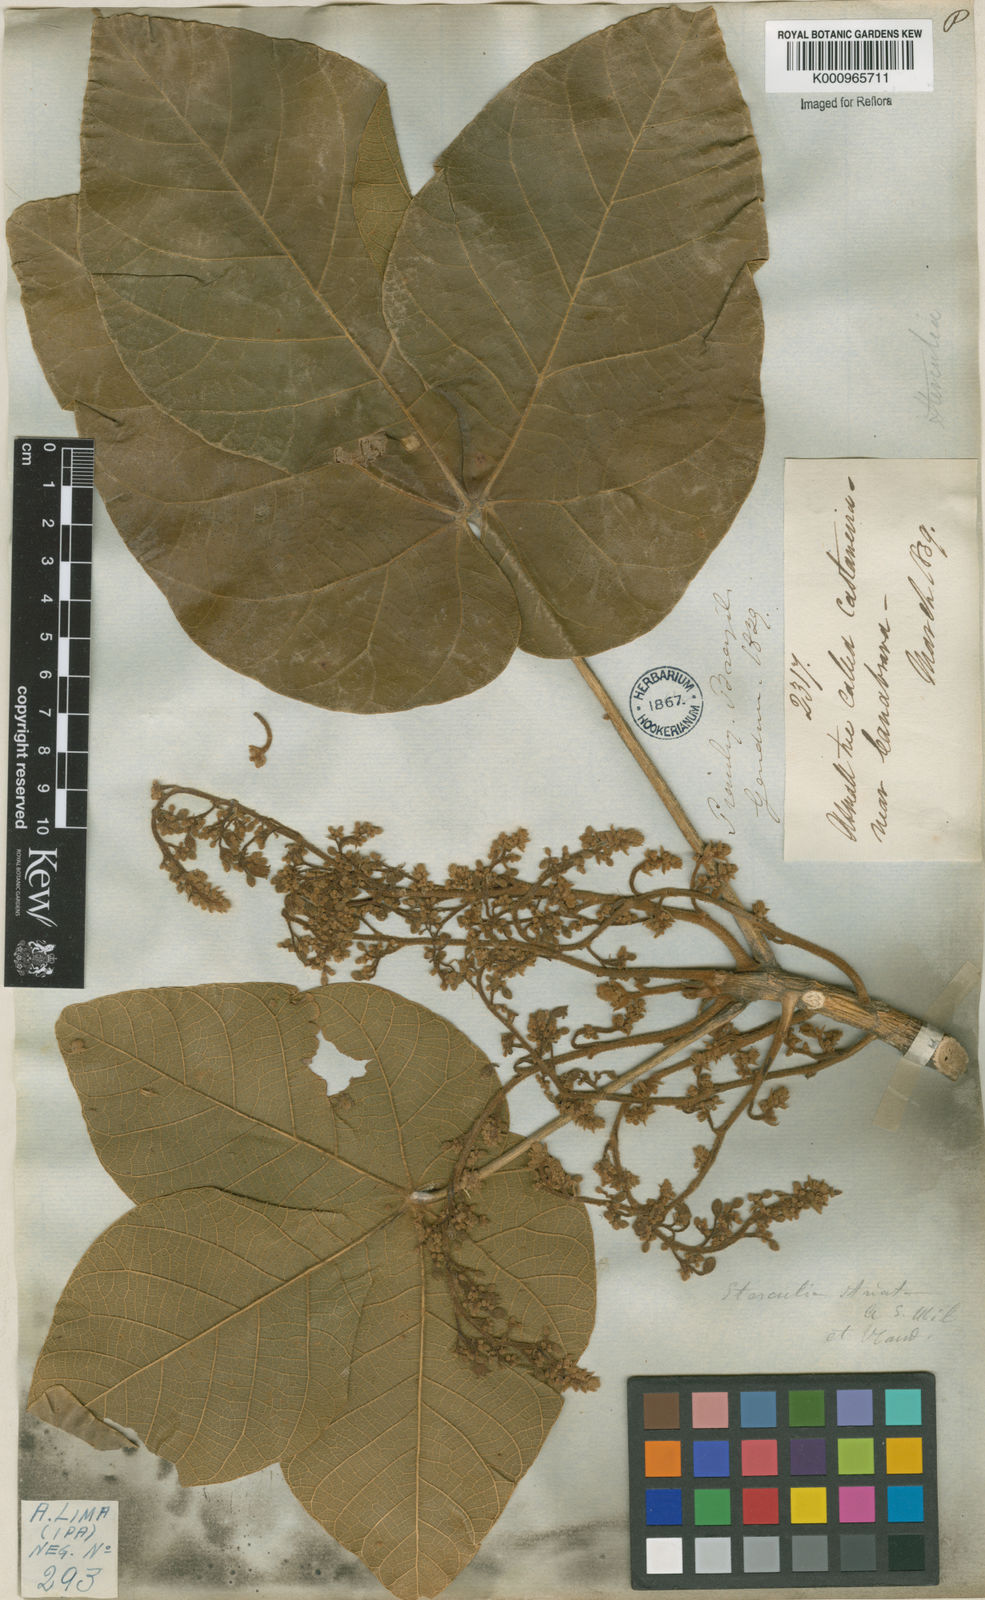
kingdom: Plantae
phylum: Tracheophyta
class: Magnoliopsida
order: Malvales
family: Malvaceae
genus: Sterculia
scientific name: Sterculia striata
